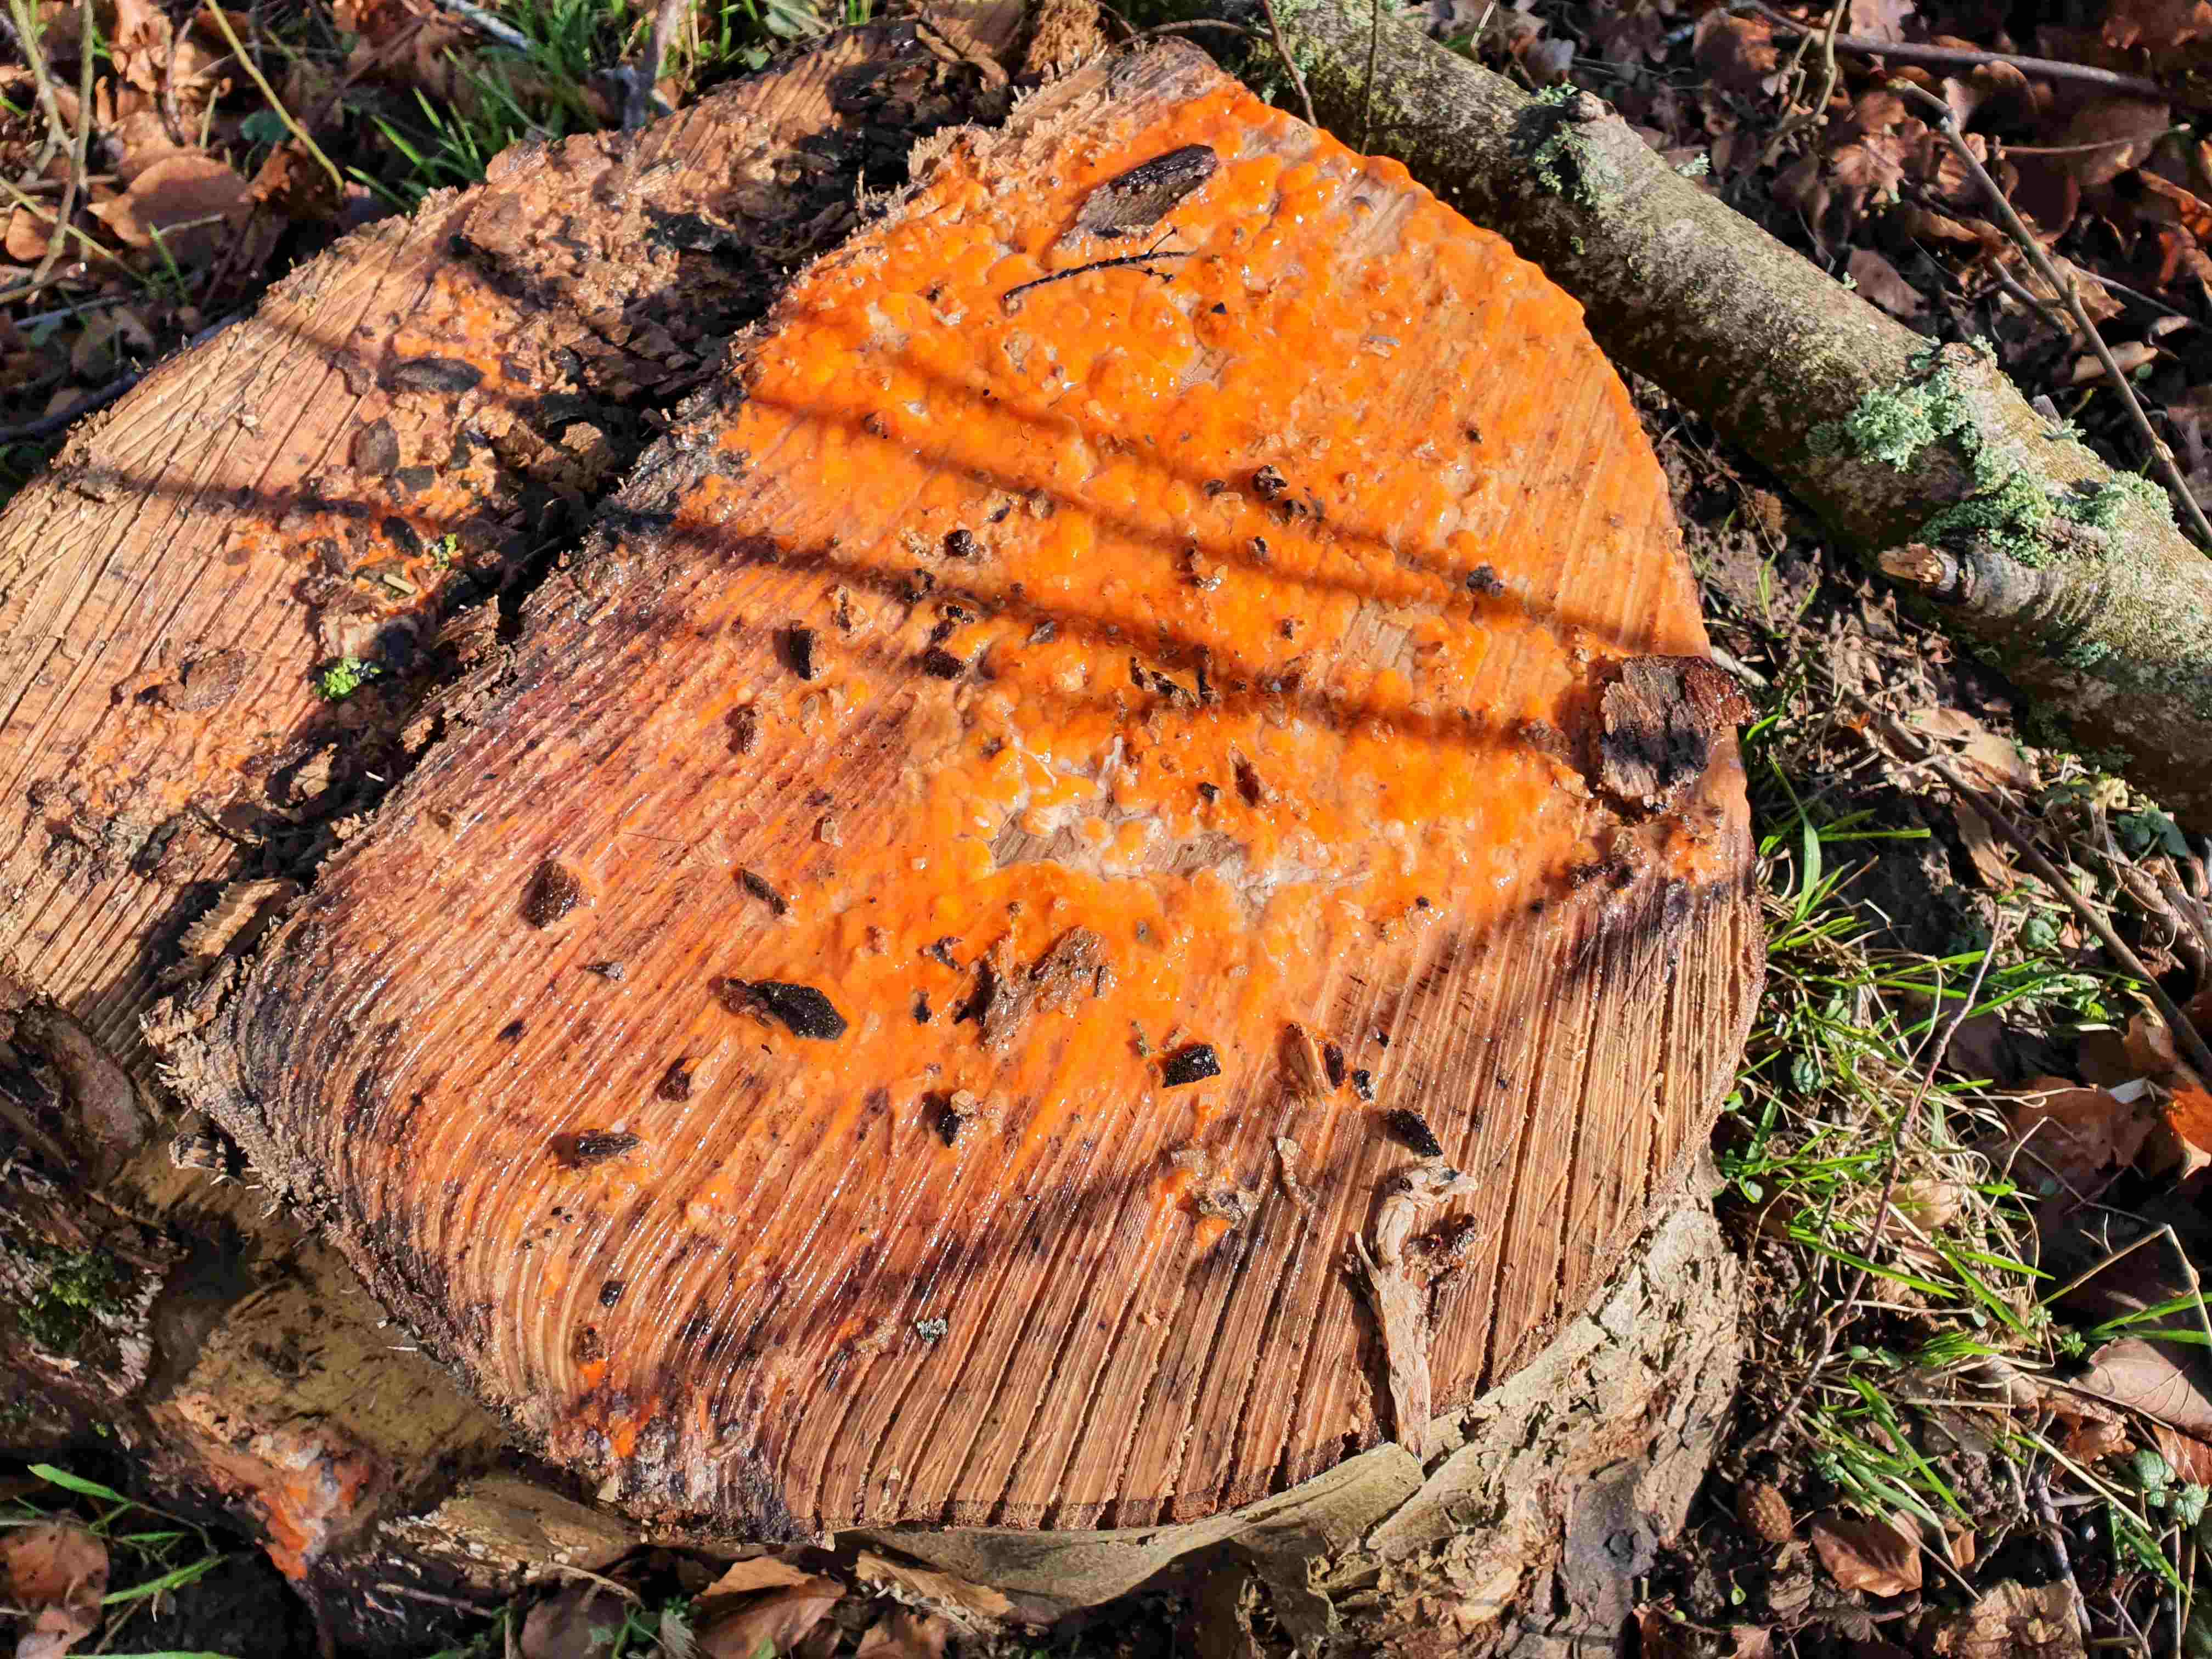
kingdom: Fungi
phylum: Basidiomycota
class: Agaricomycetes
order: Russulales
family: Peniophoraceae
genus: Peniophora
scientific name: Peniophora incarnata
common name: laksefarvet voksskind
